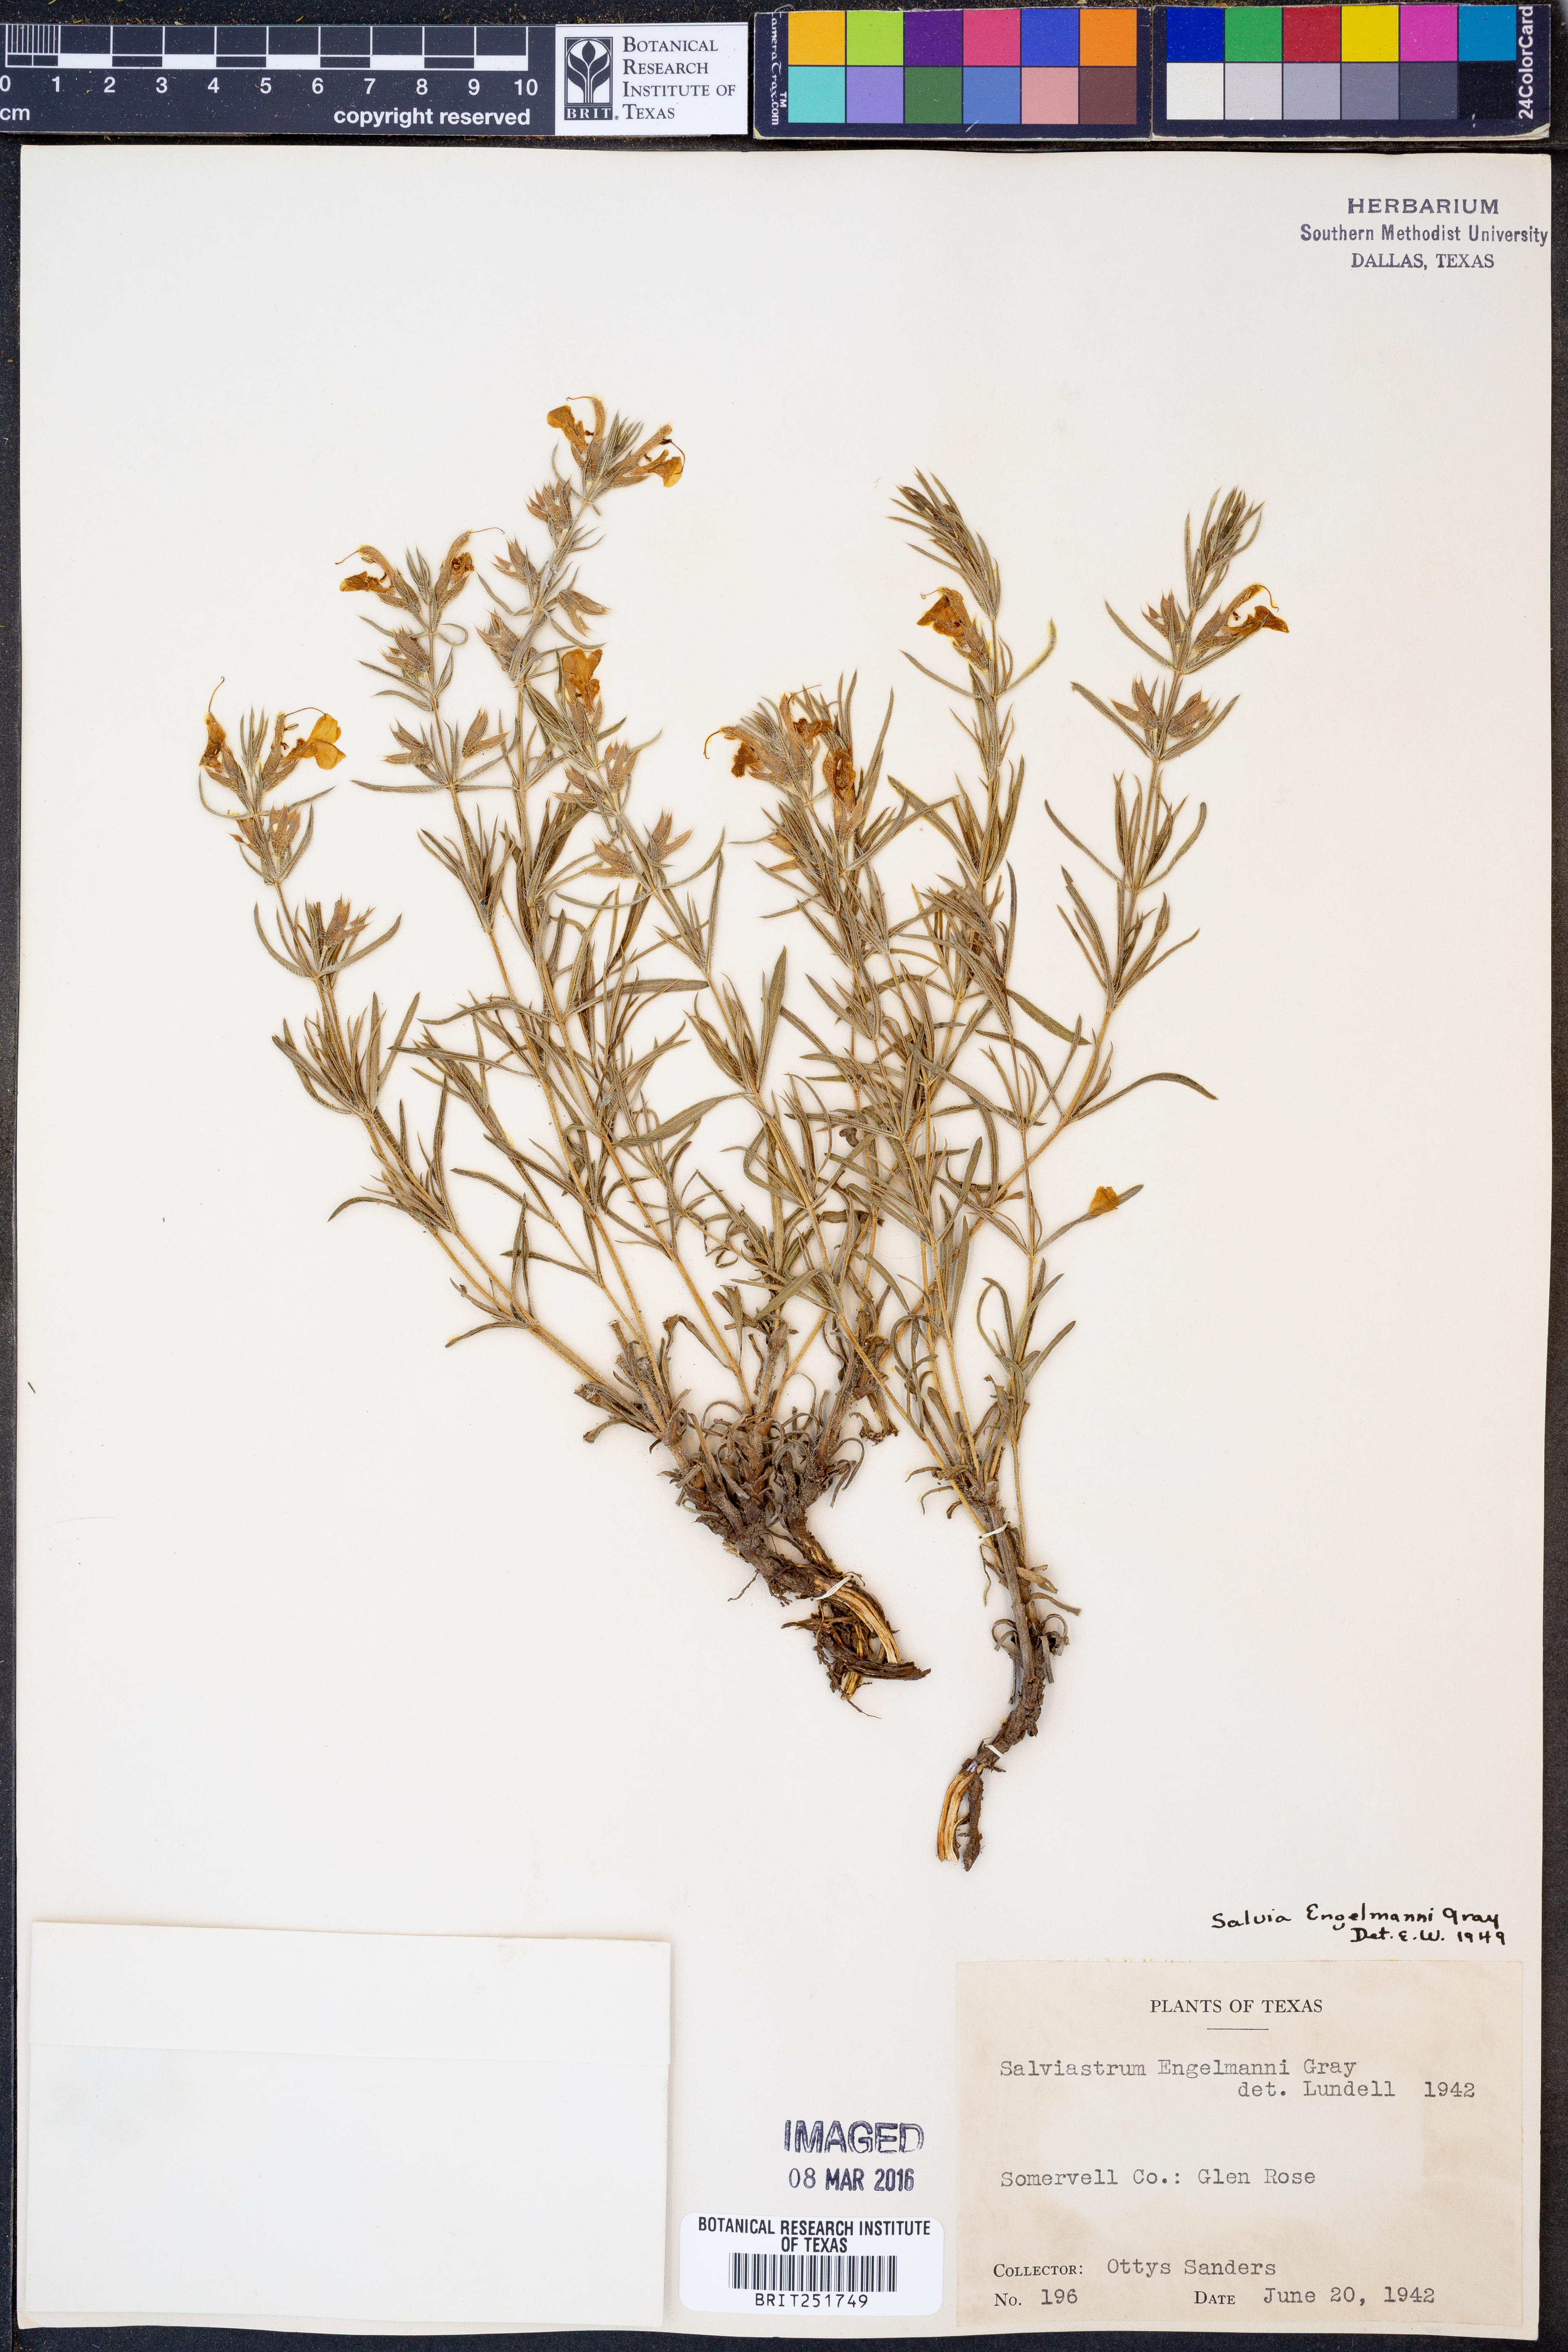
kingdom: Plantae
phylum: Tracheophyta
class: Magnoliopsida
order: Lamiales
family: Lamiaceae
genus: Salvia
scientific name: Salvia engelmannii
